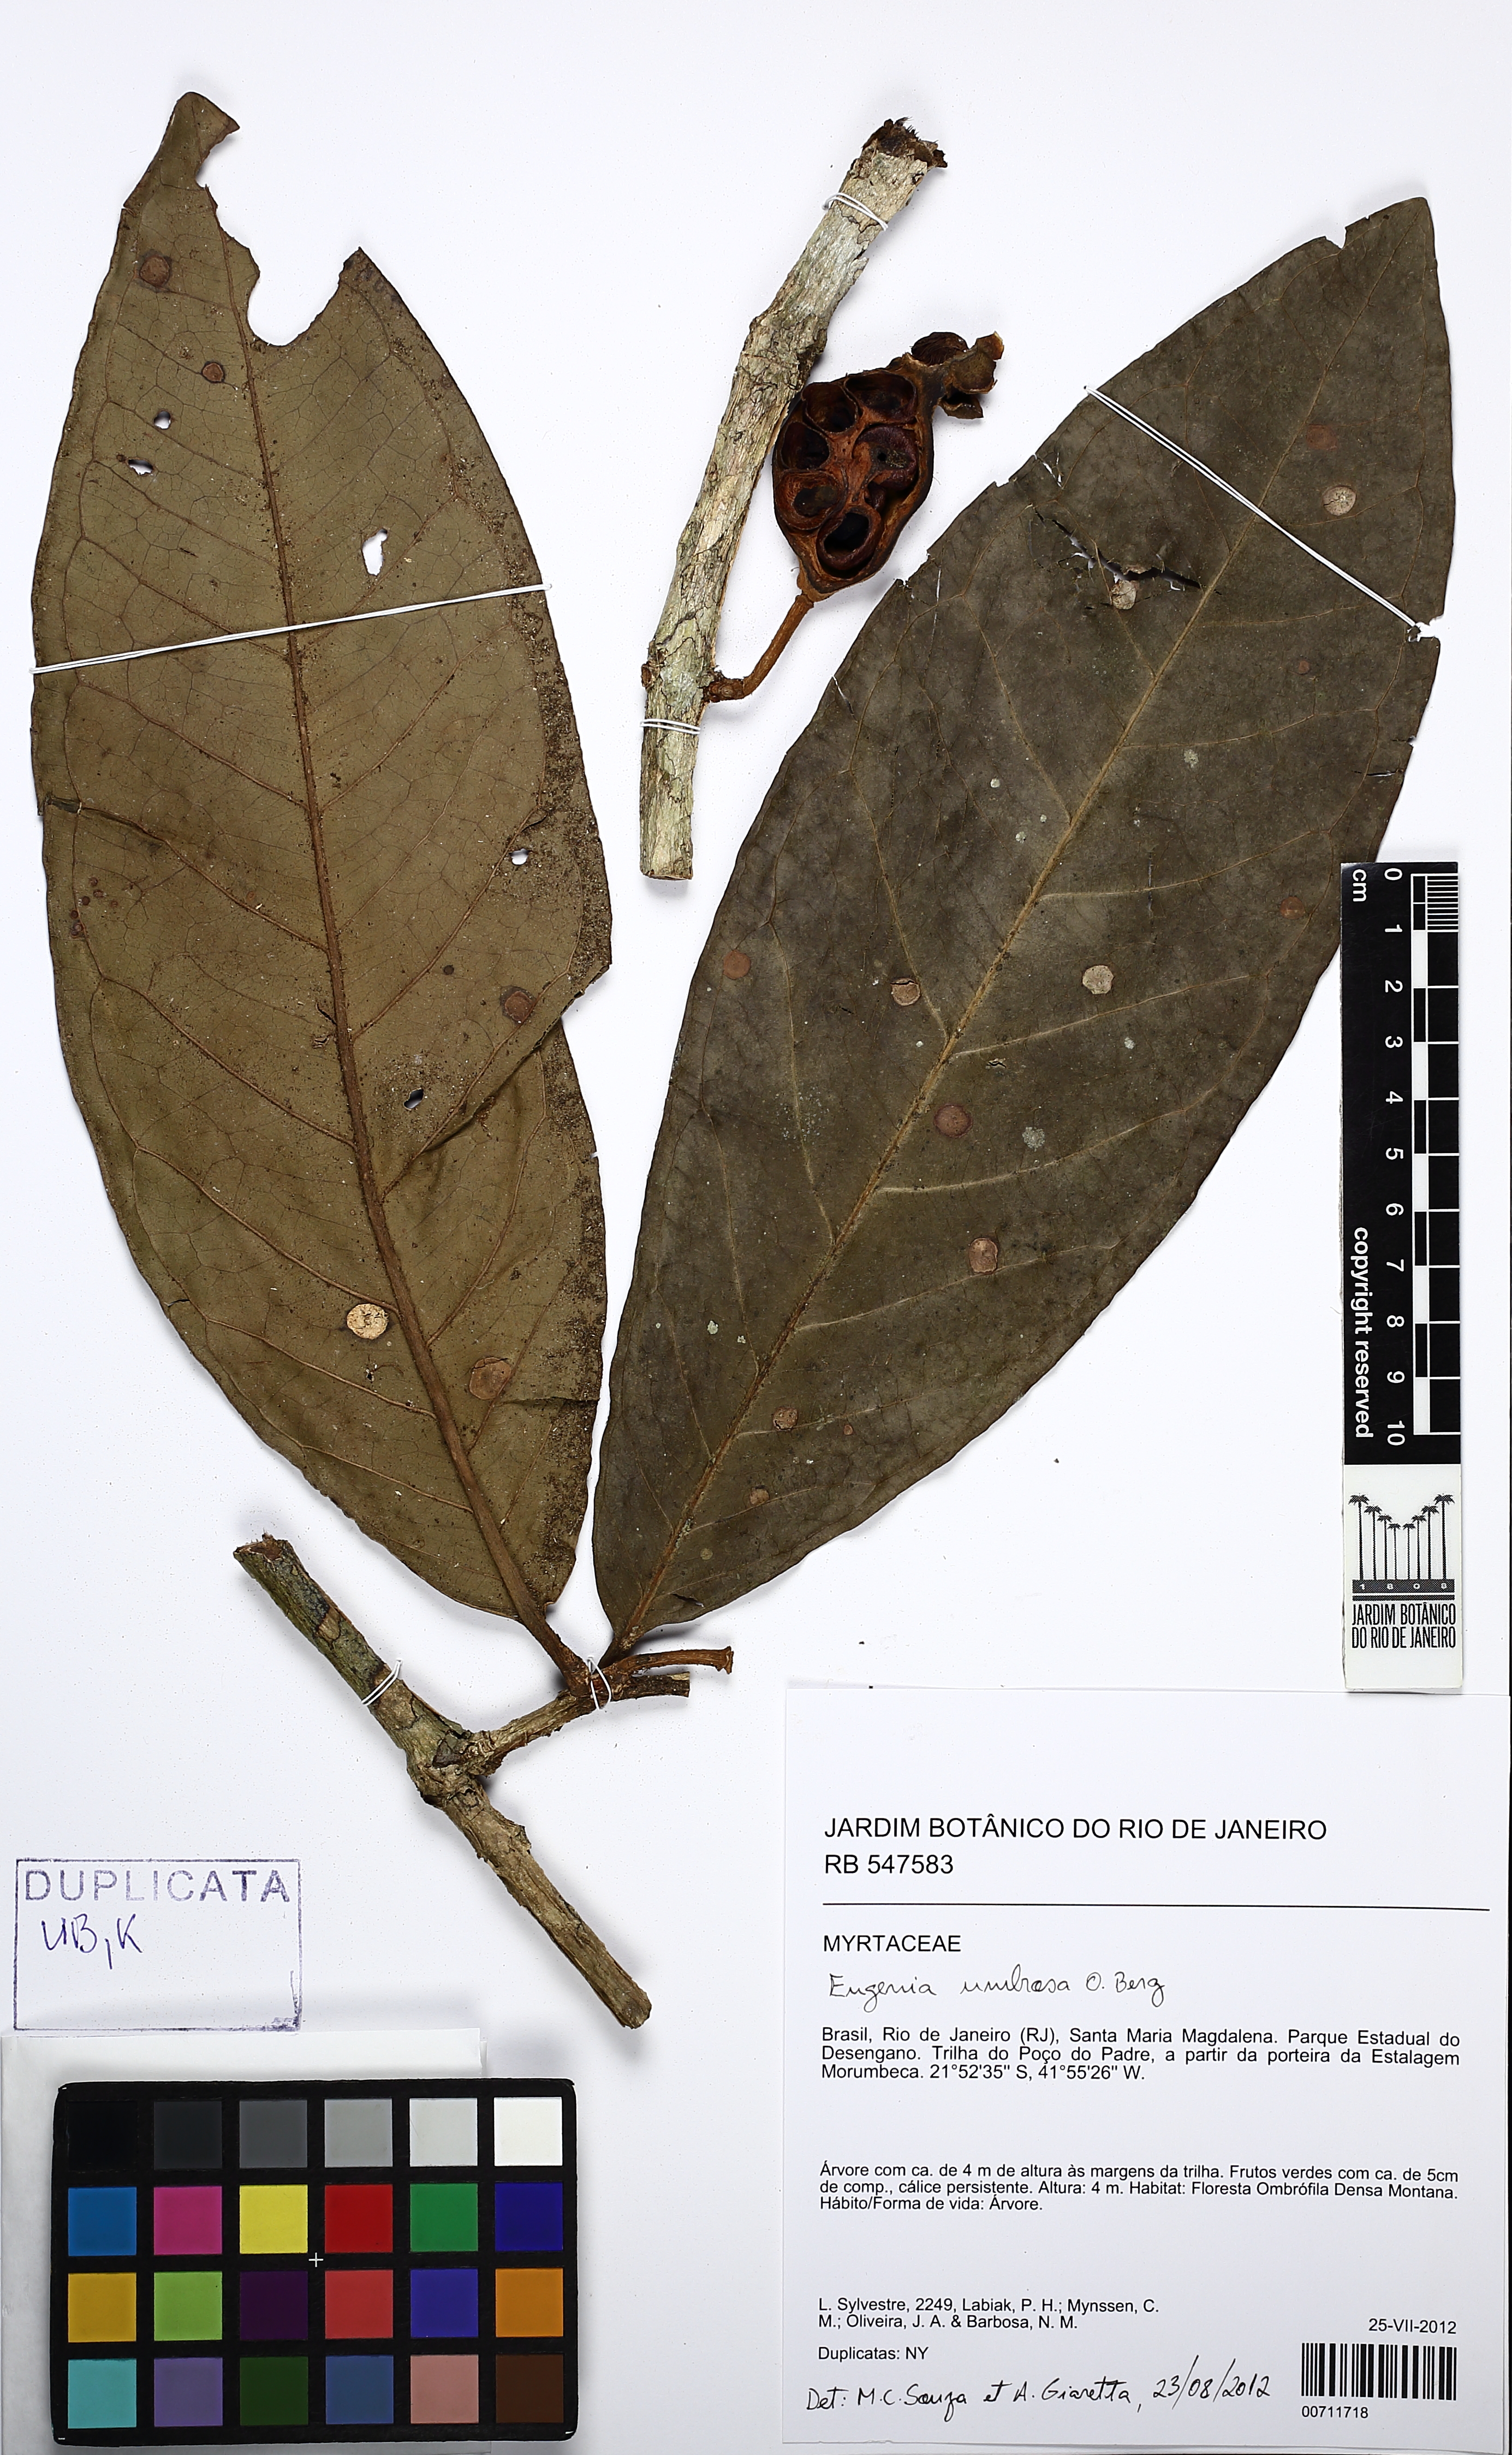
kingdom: Plantae
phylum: Tracheophyta
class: Magnoliopsida
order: Myrtales
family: Myrtaceae
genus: Eugenia
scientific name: Eugenia umbrosa
